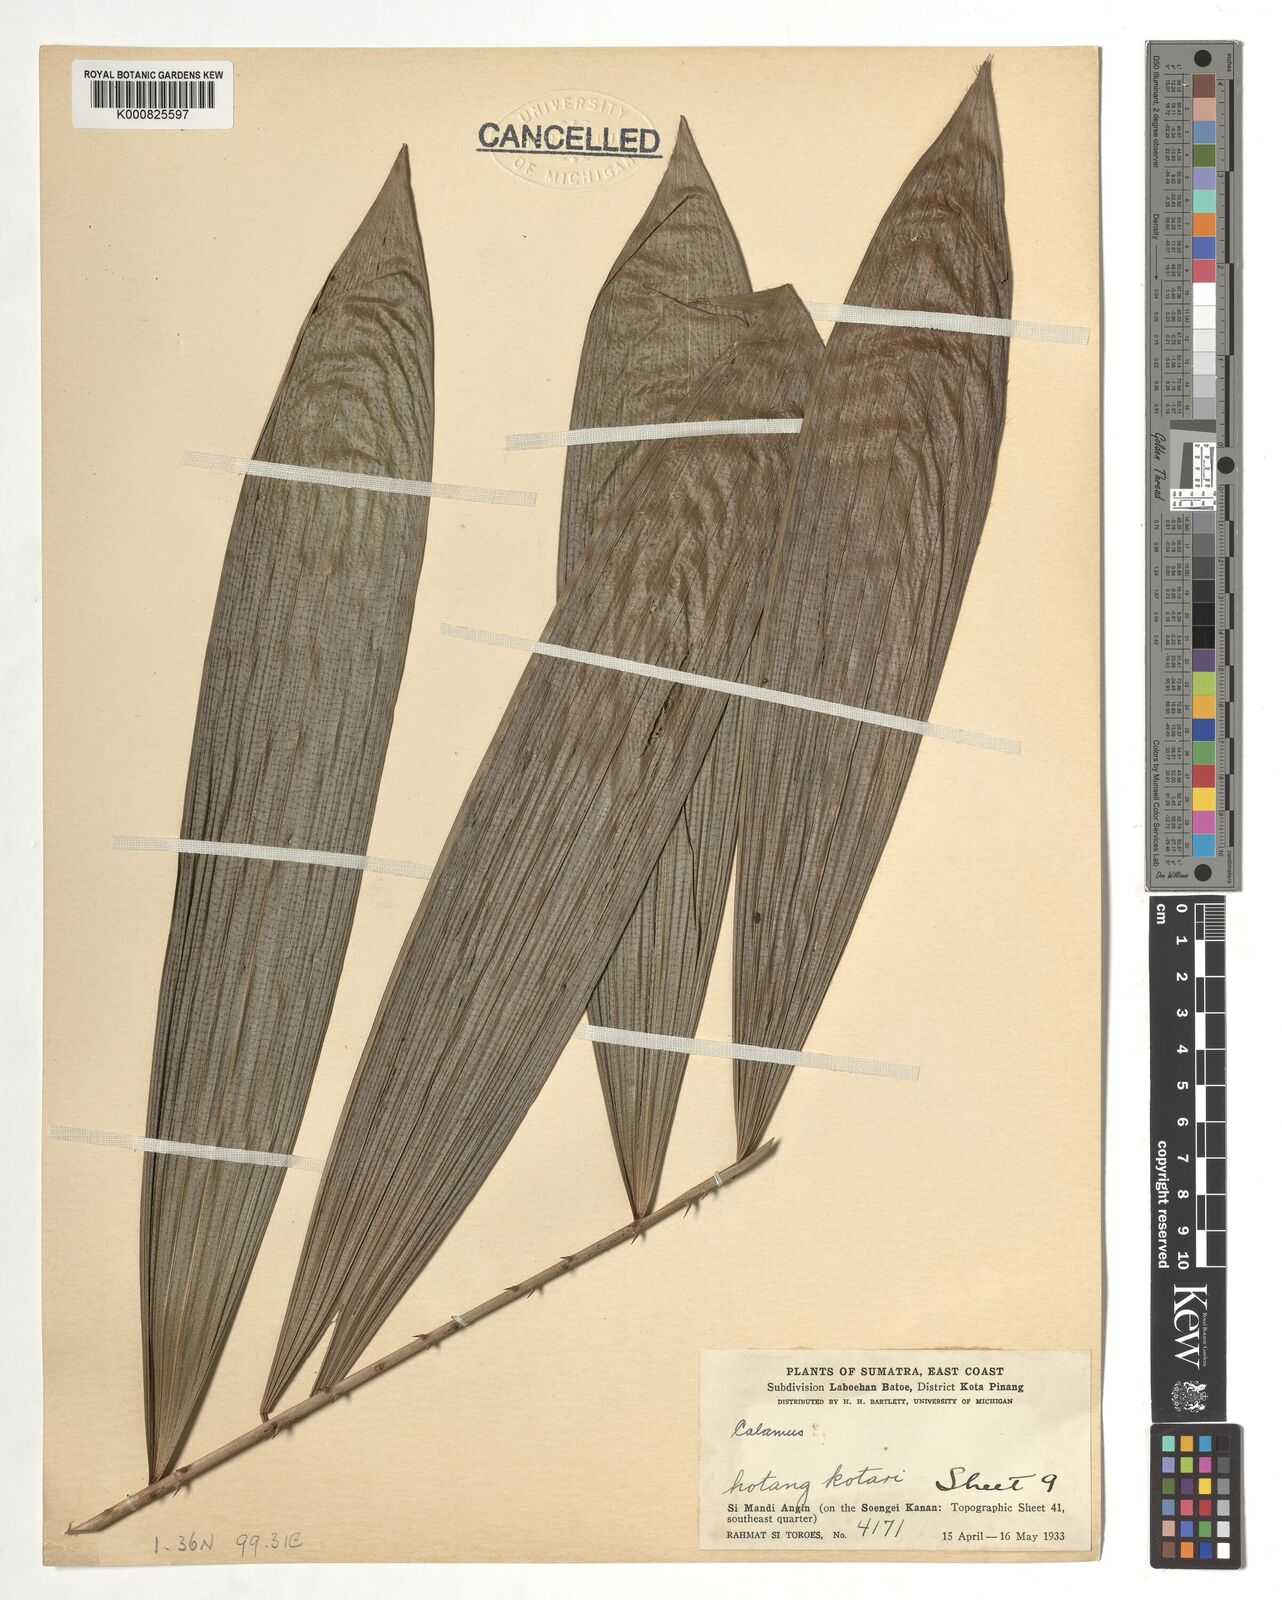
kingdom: Plantae
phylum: Tracheophyta
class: Liliopsida
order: Arecales
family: Arecaceae
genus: Calamus
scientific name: Calamus
